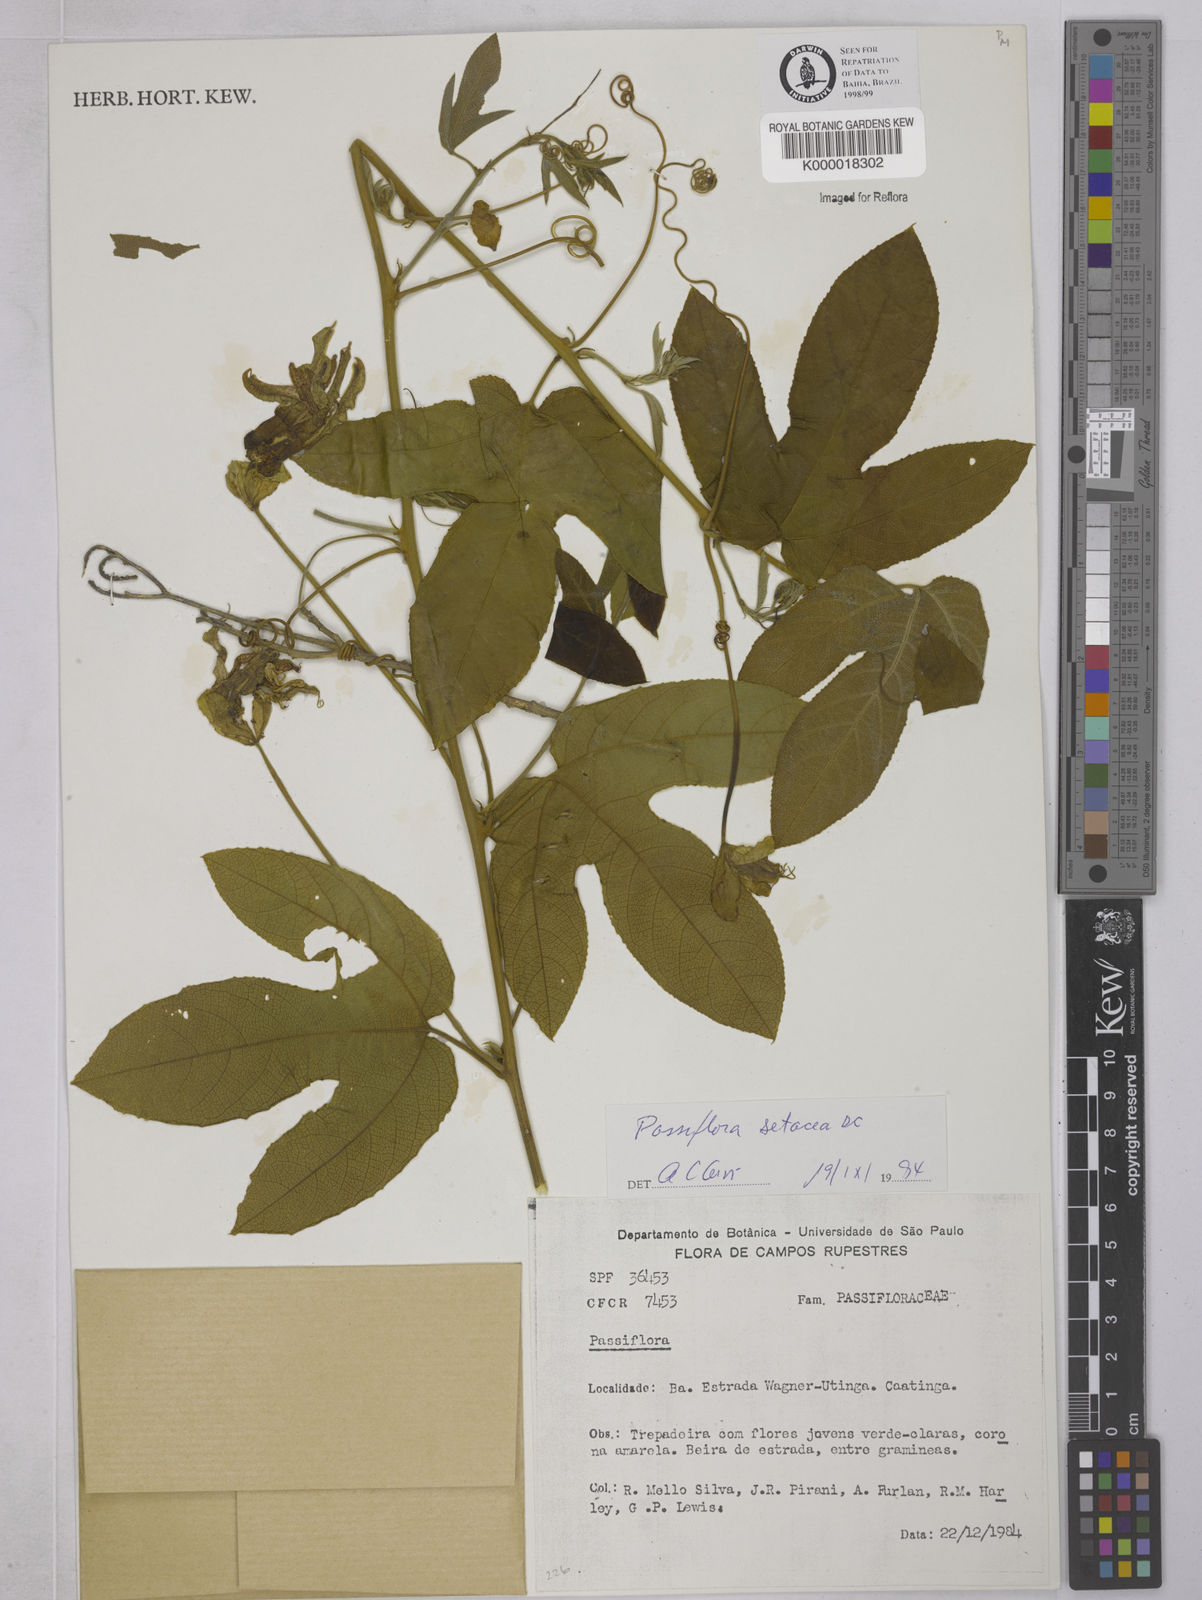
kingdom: Plantae
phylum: Tracheophyta
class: Magnoliopsida
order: Malpighiales
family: Passifloraceae
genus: Passiflora
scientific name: Passiflora setacea
